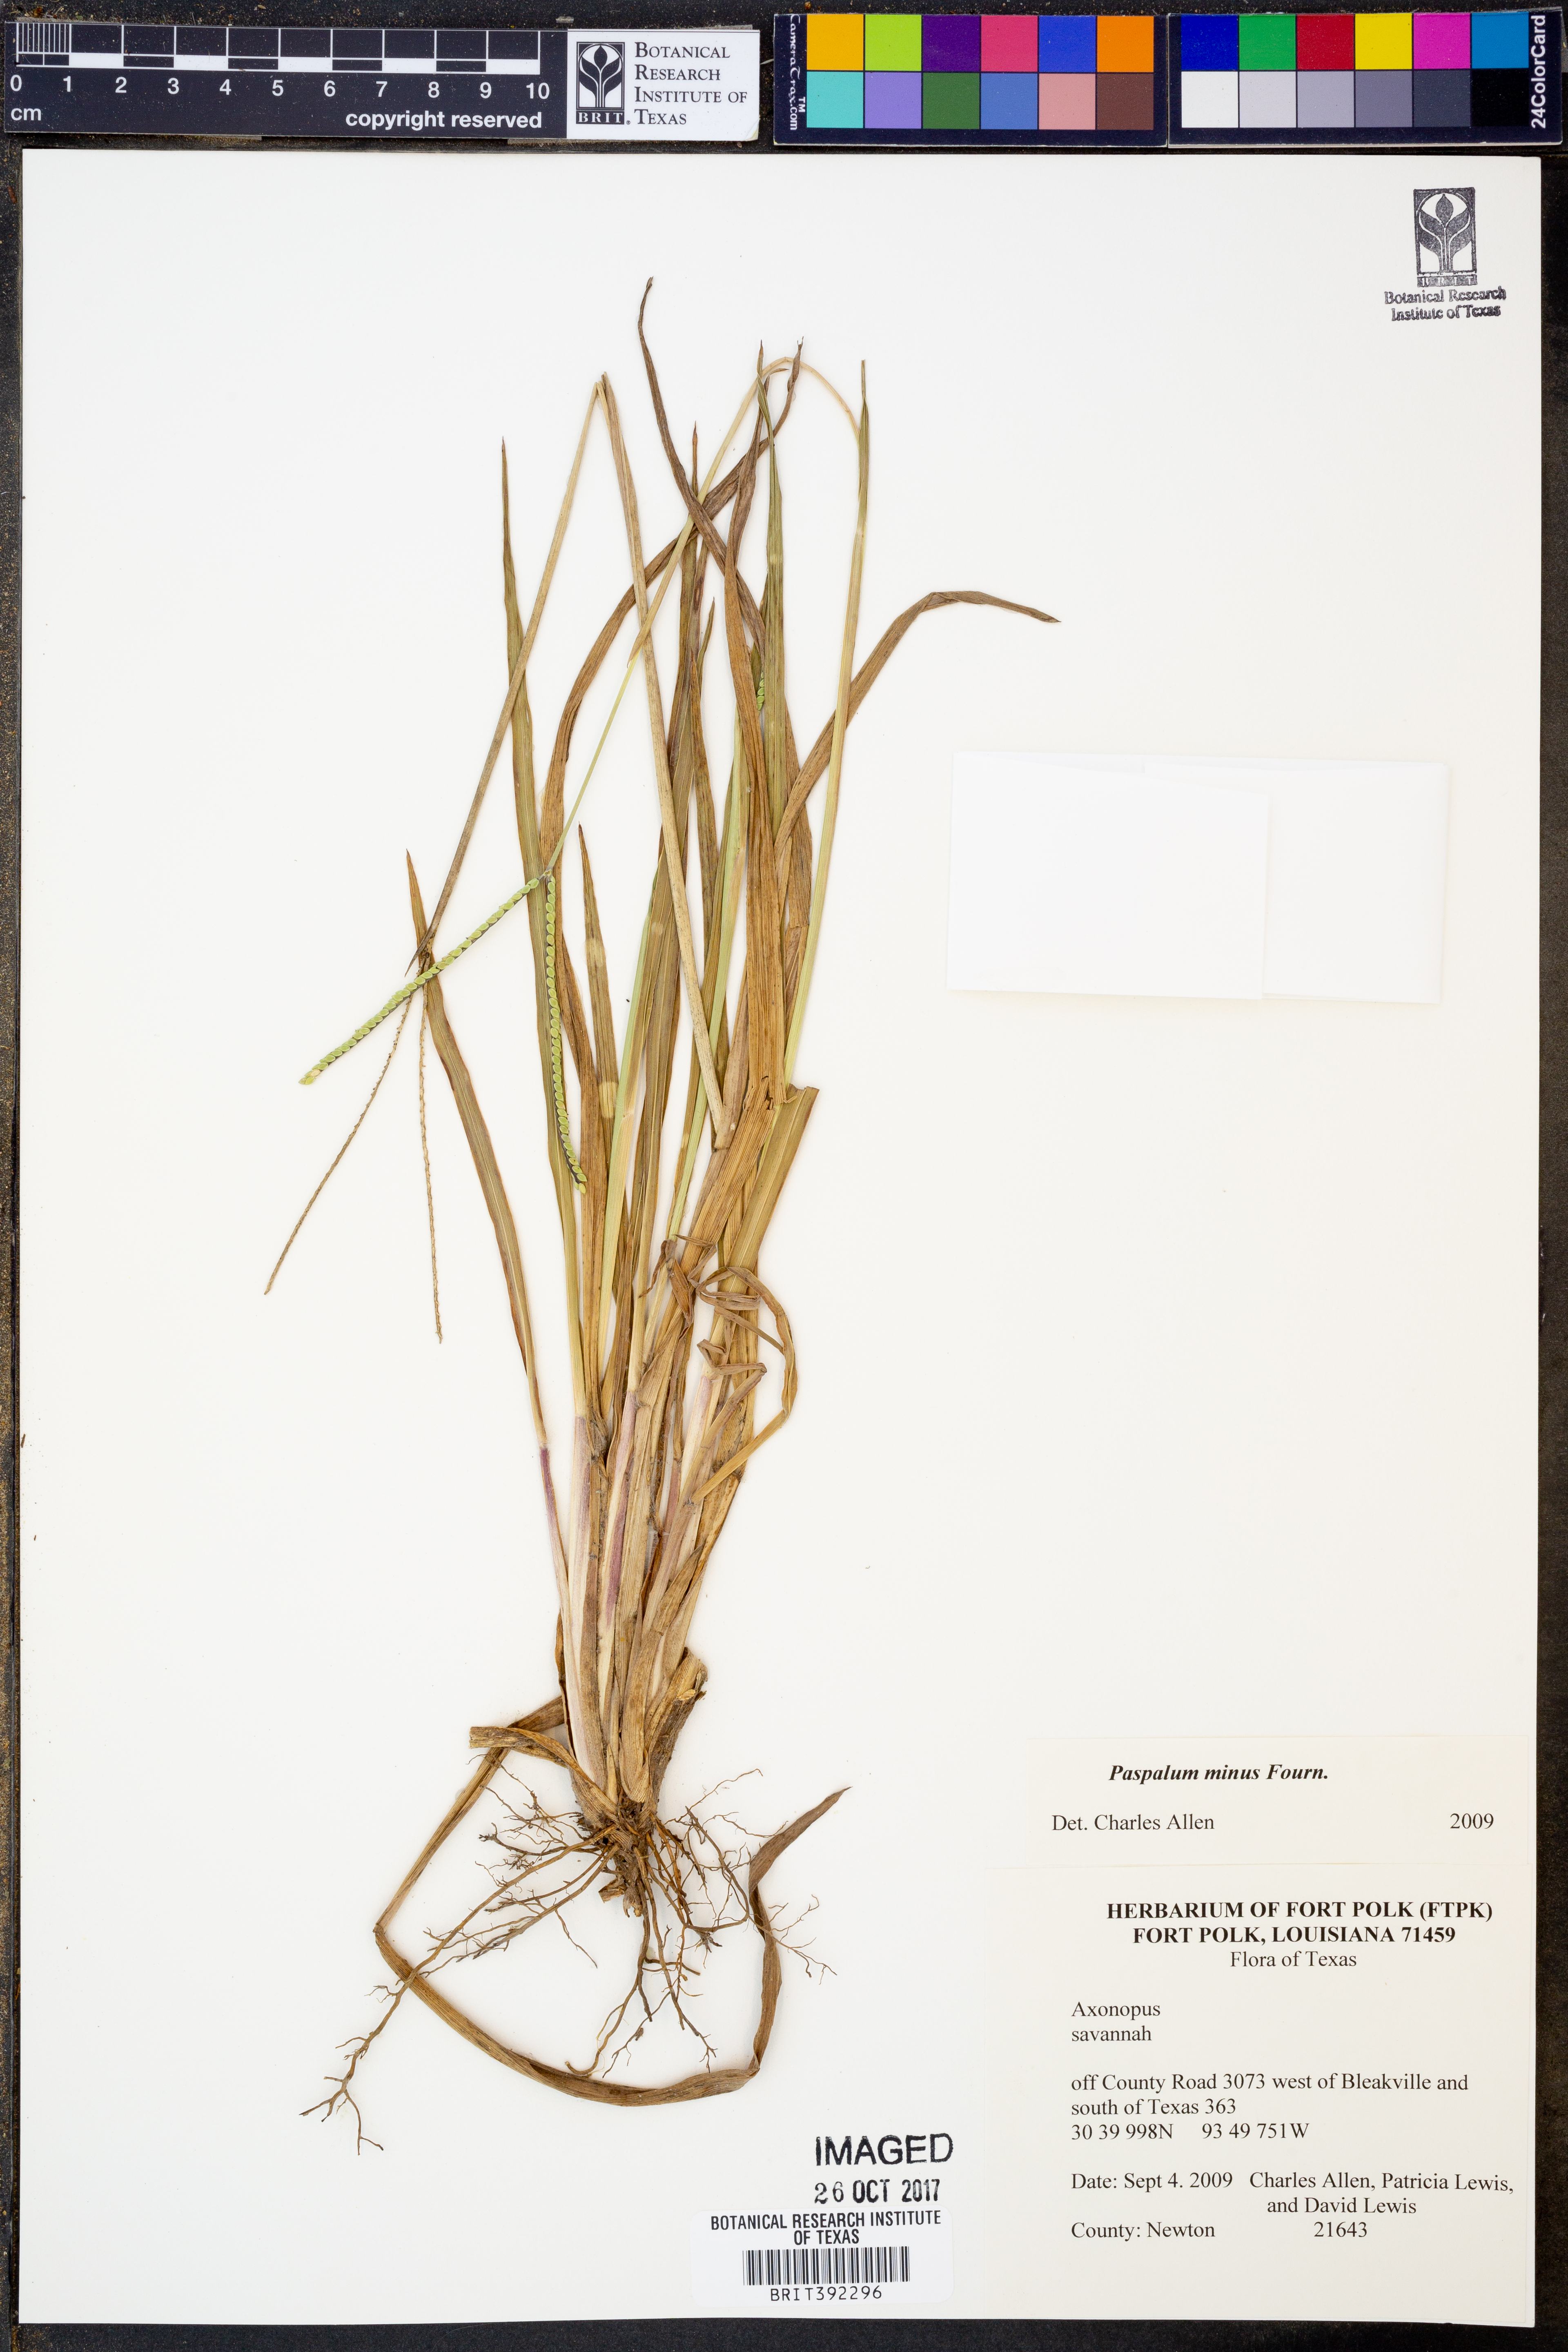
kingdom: Plantae
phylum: Tracheophyta
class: Liliopsida
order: Poales
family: Poaceae
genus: Paspalum
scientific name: Paspalum minus
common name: Matted paspalum
